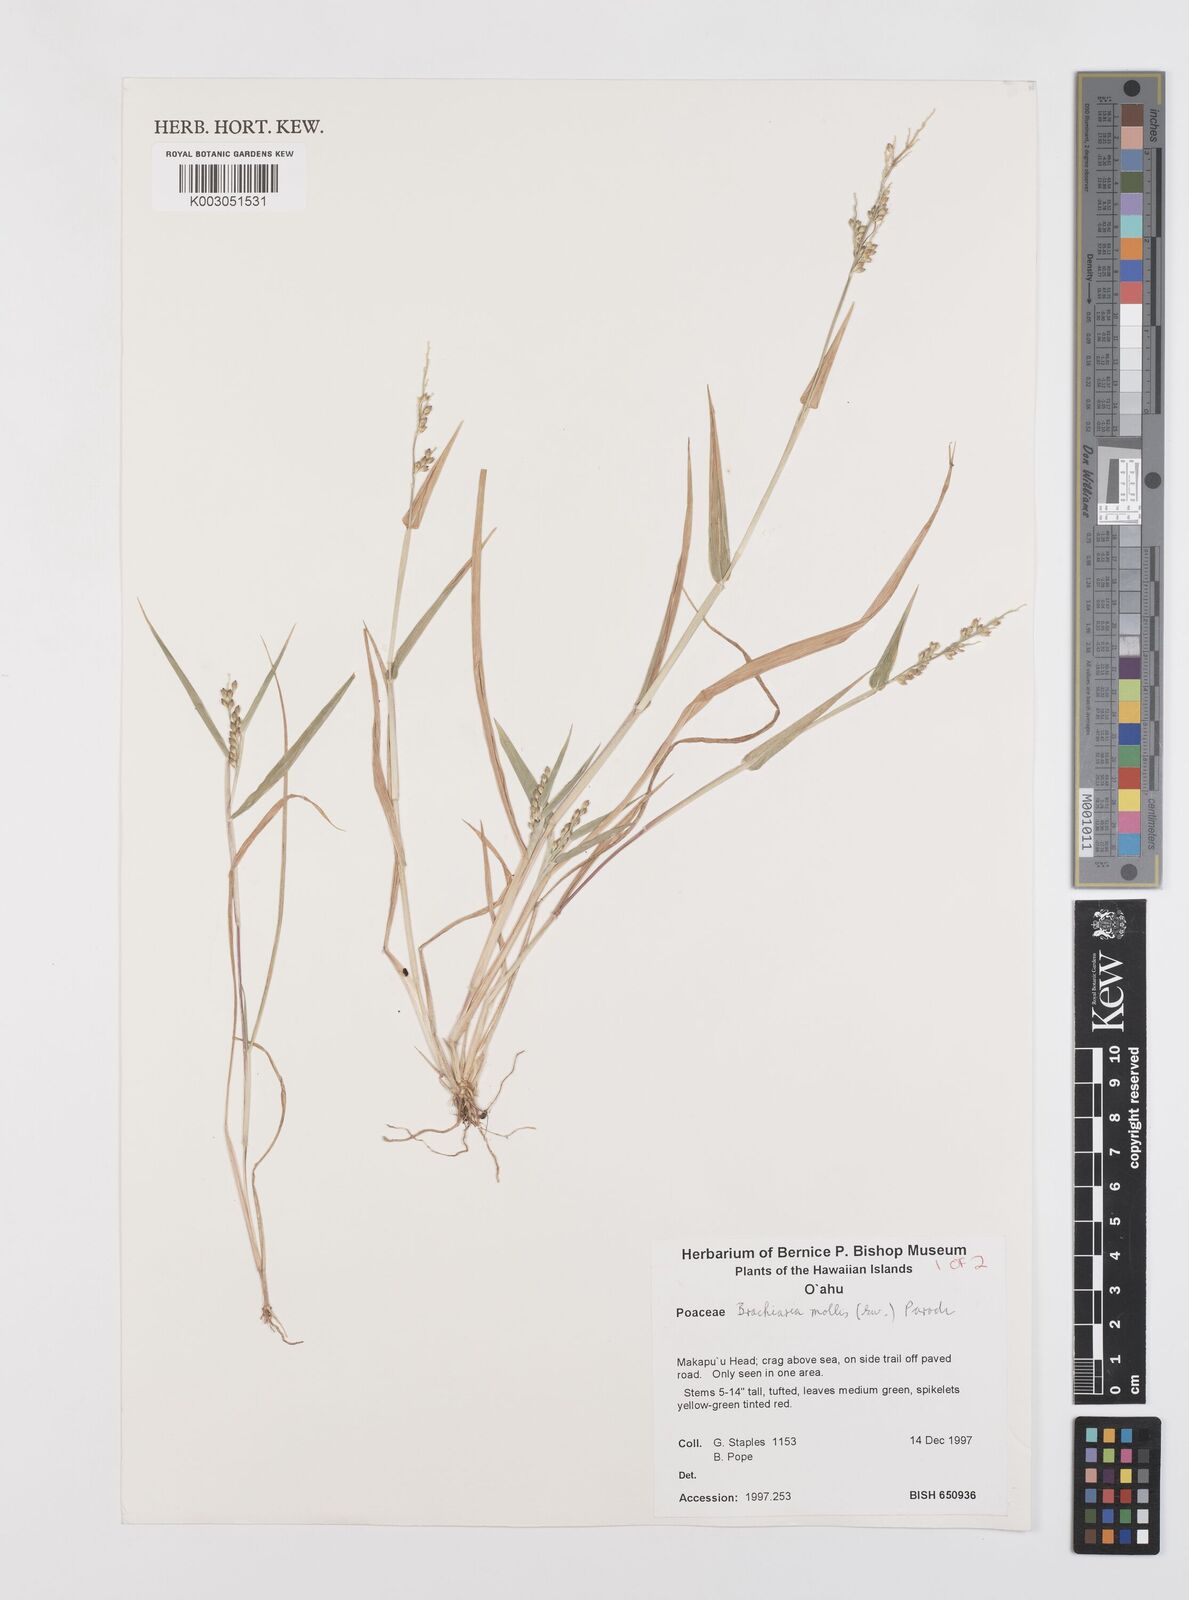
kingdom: Plantae
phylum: Tracheophyta
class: Liliopsida
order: Poales
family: Poaceae
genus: Urochloa
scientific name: Urochloa mollis
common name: Grass
